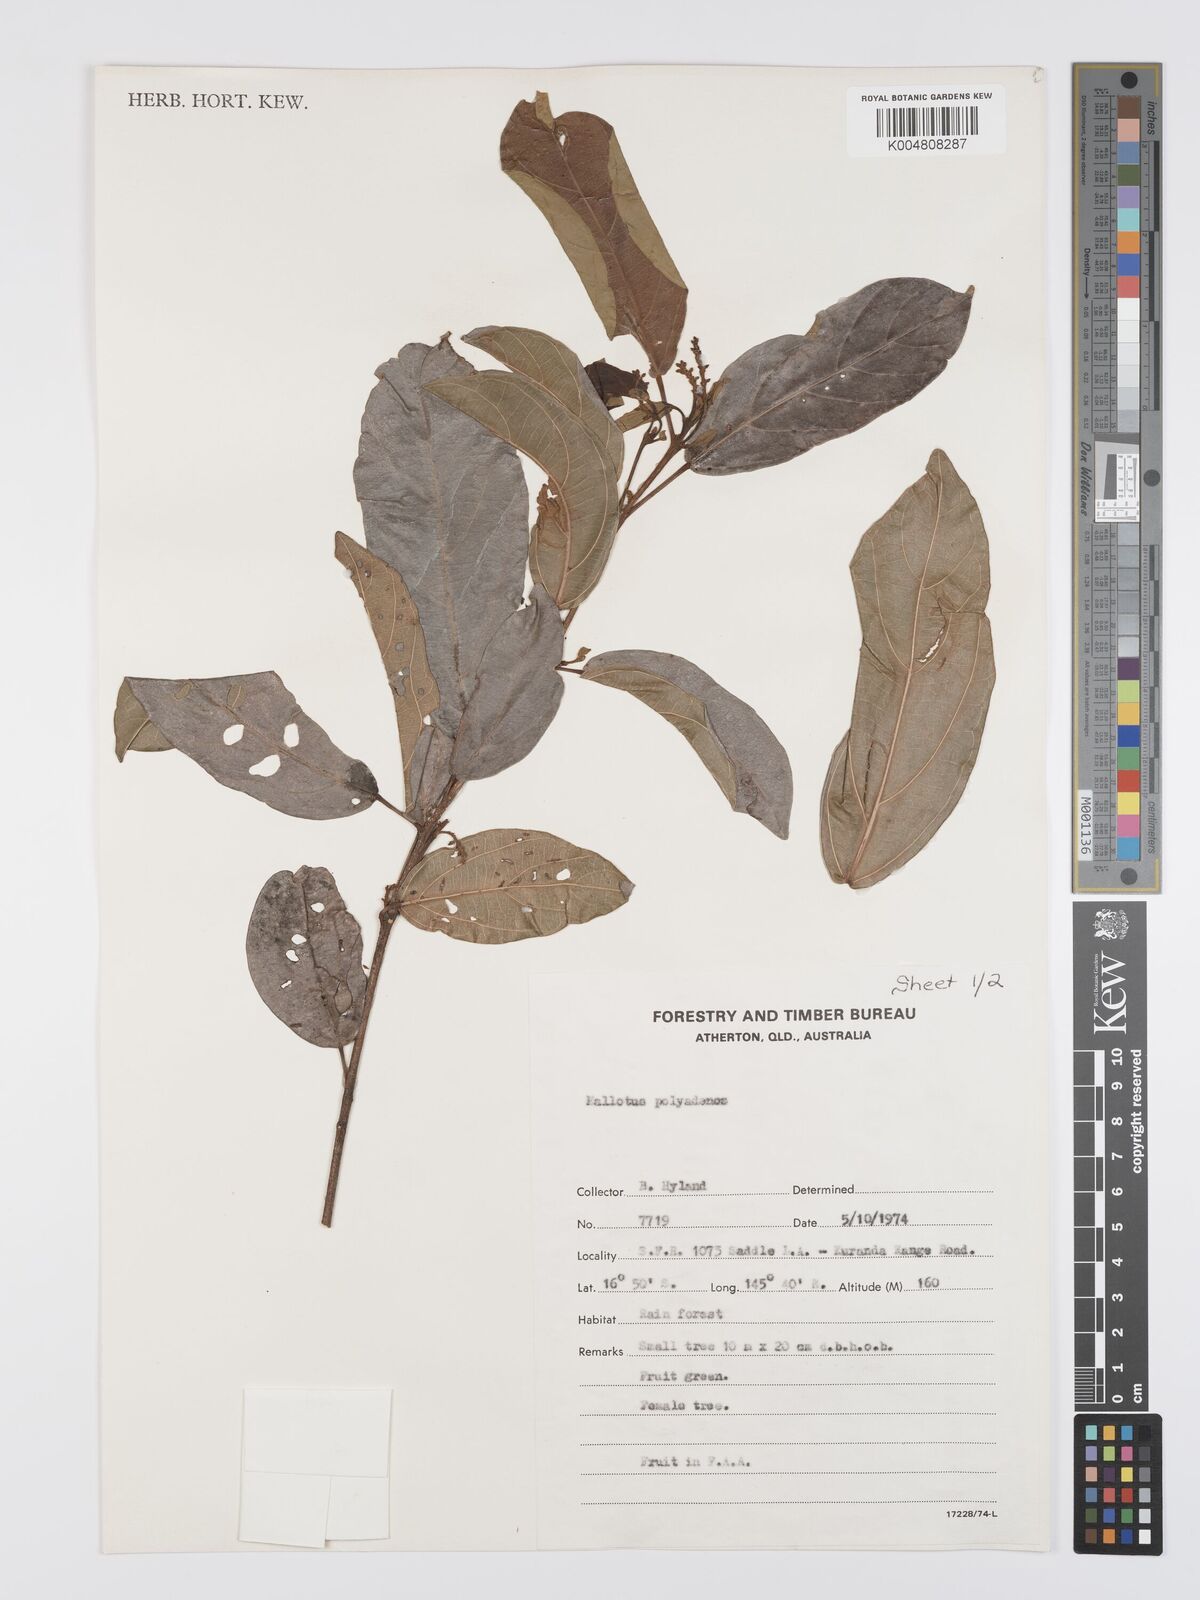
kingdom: Plantae
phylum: Tracheophyta
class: Magnoliopsida
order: Malpighiales
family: Euphorbiaceae
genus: Mallotus
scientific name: Mallotus polyadenos
